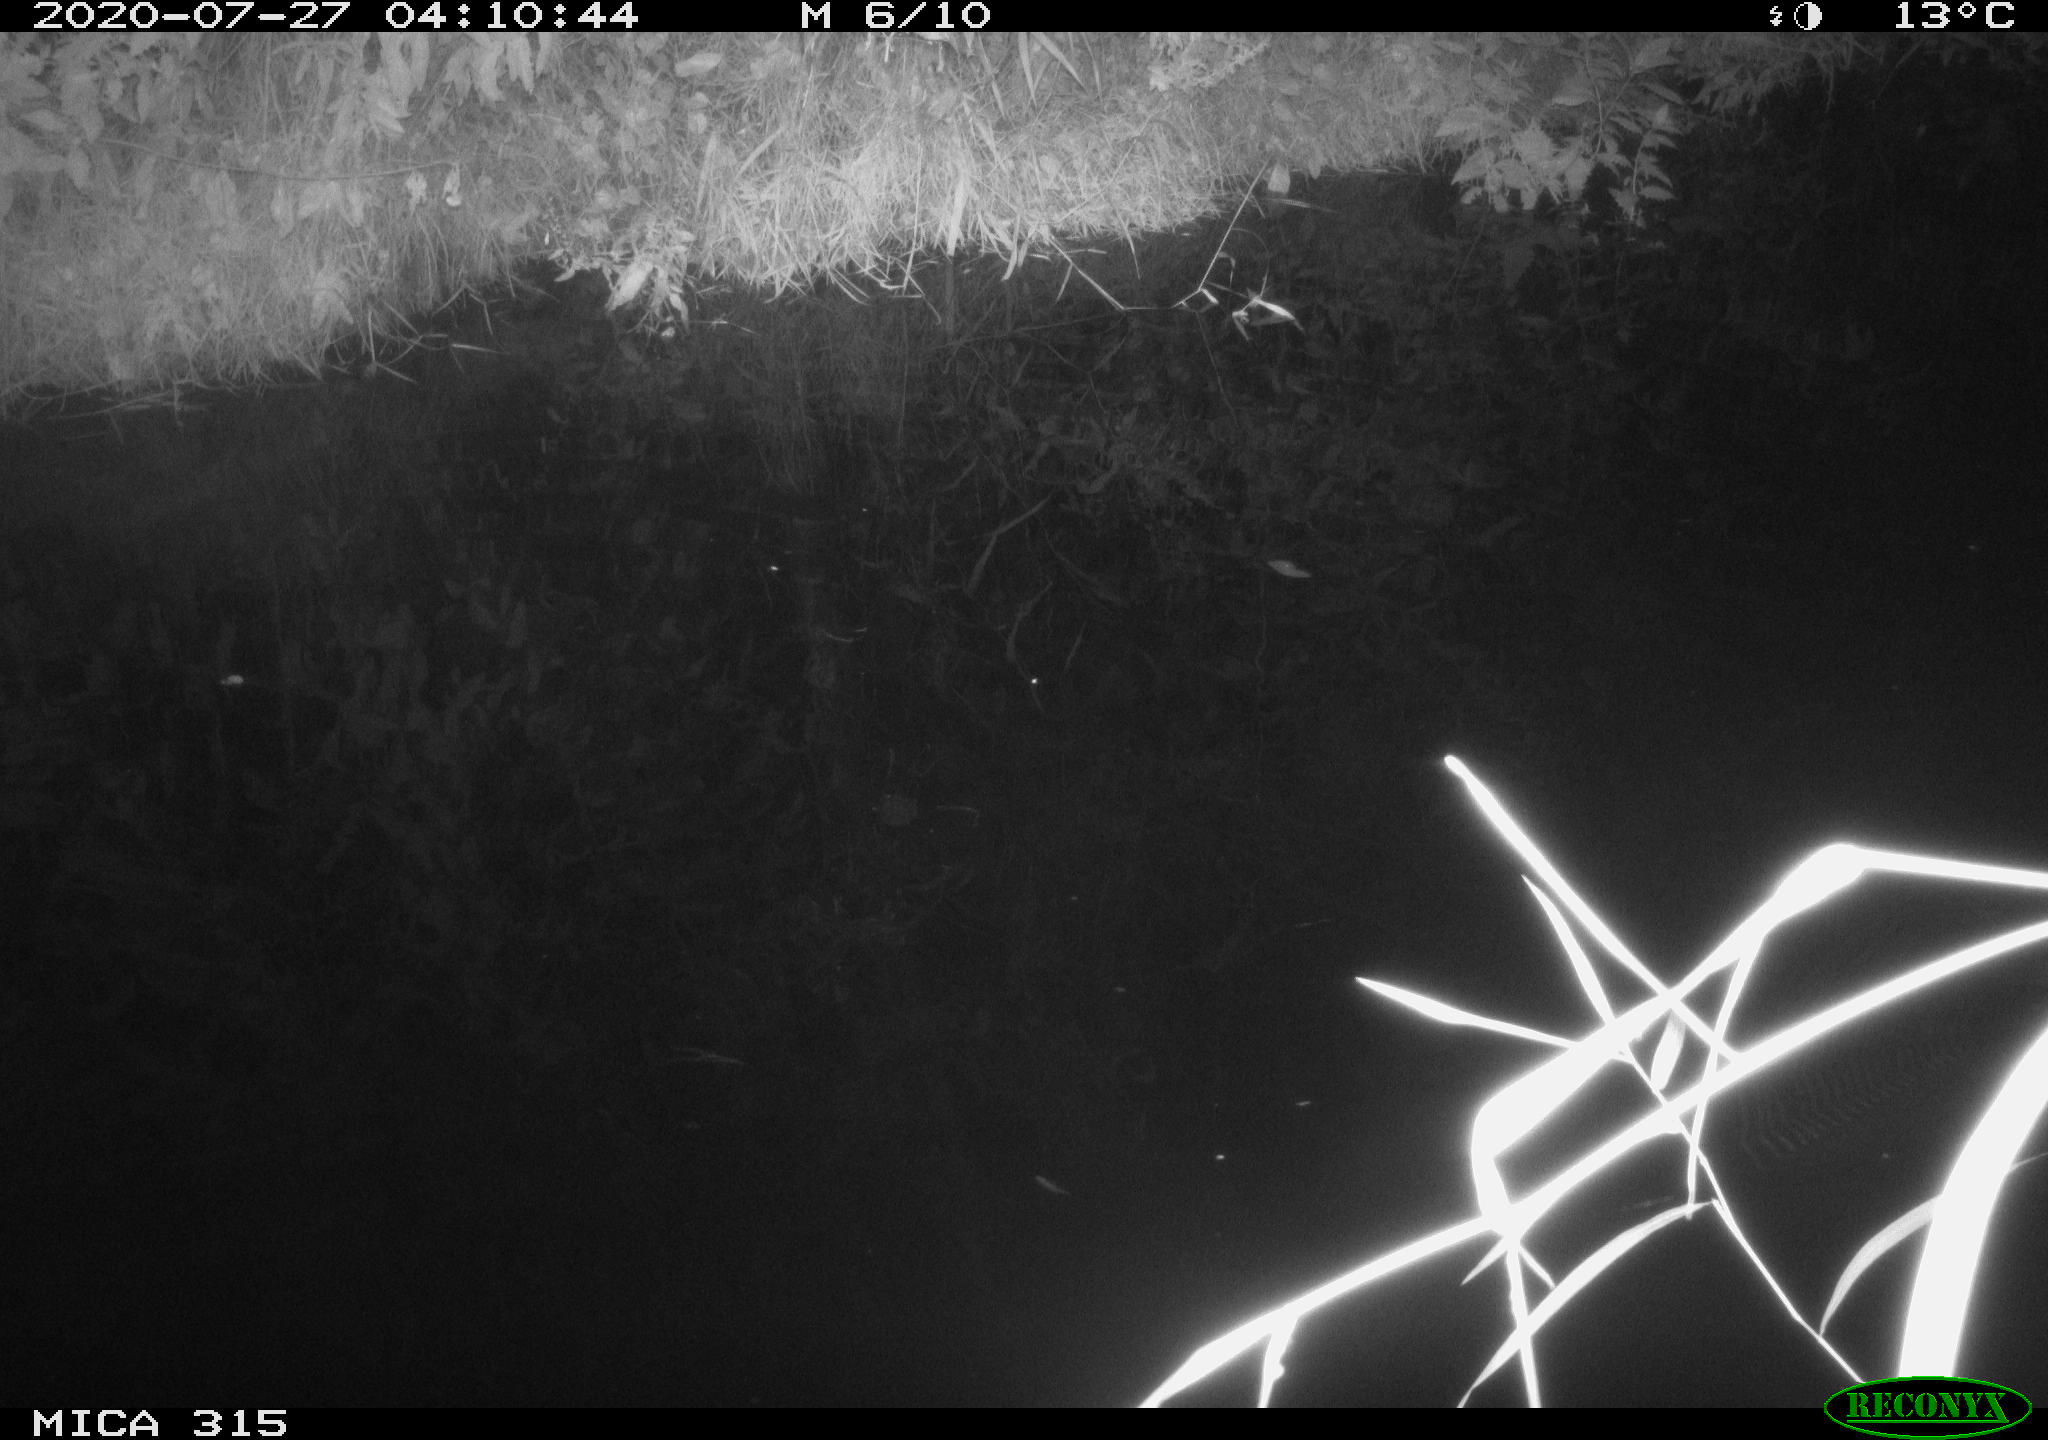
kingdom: Animalia
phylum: Chordata
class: Aves
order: Anseriformes
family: Anatidae
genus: Anas
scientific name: Anas platyrhynchos
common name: Mallard
